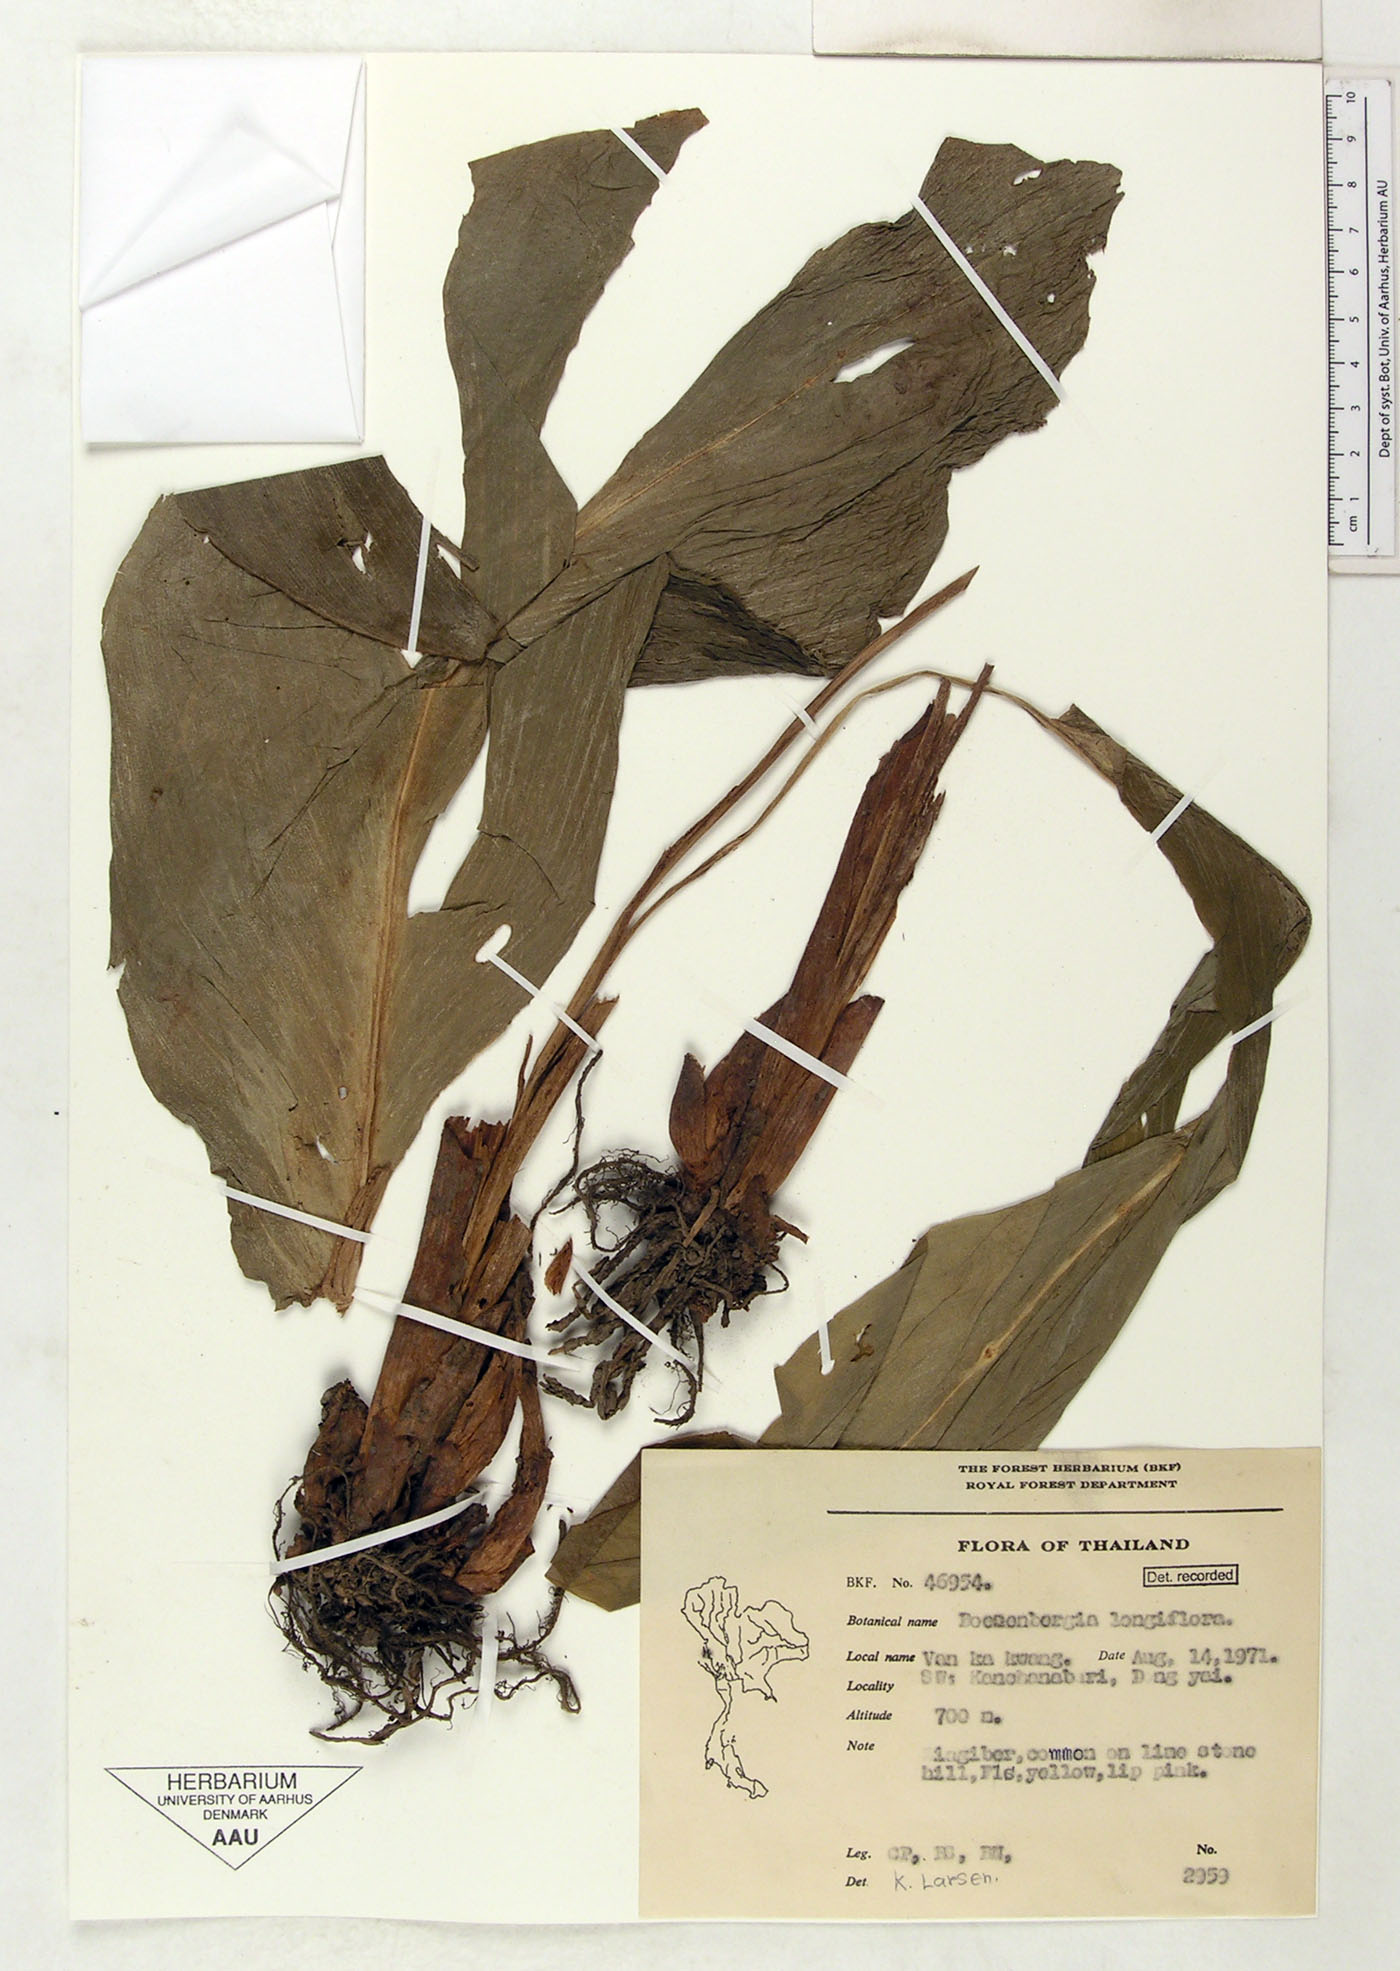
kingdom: Plantae
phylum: Tracheophyta
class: Liliopsida
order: Zingiberales
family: Zingiberaceae
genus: Boesenbergia
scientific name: Boesenbergia longiflora
